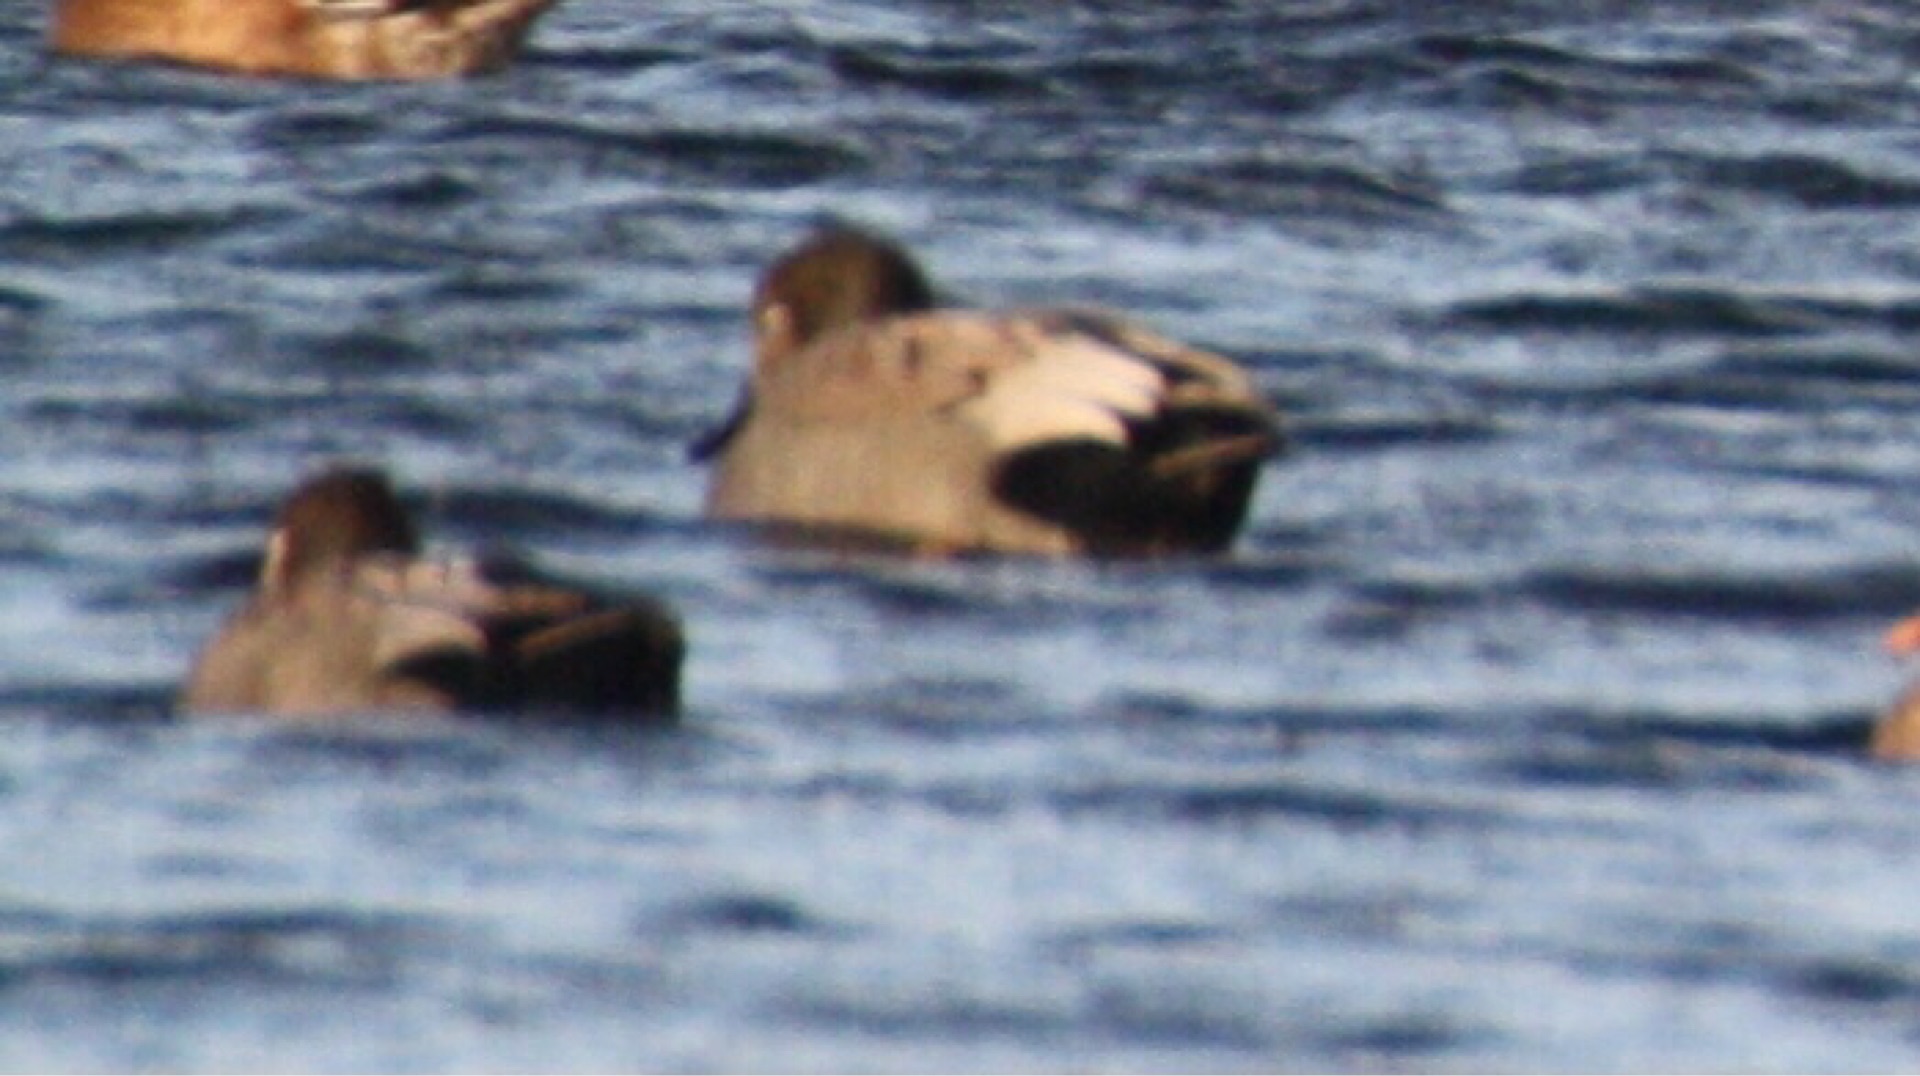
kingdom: Animalia
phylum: Chordata
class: Aves
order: Anseriformes
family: Anatidae
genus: Mareca
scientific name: Mareca strepera
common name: Knarand
